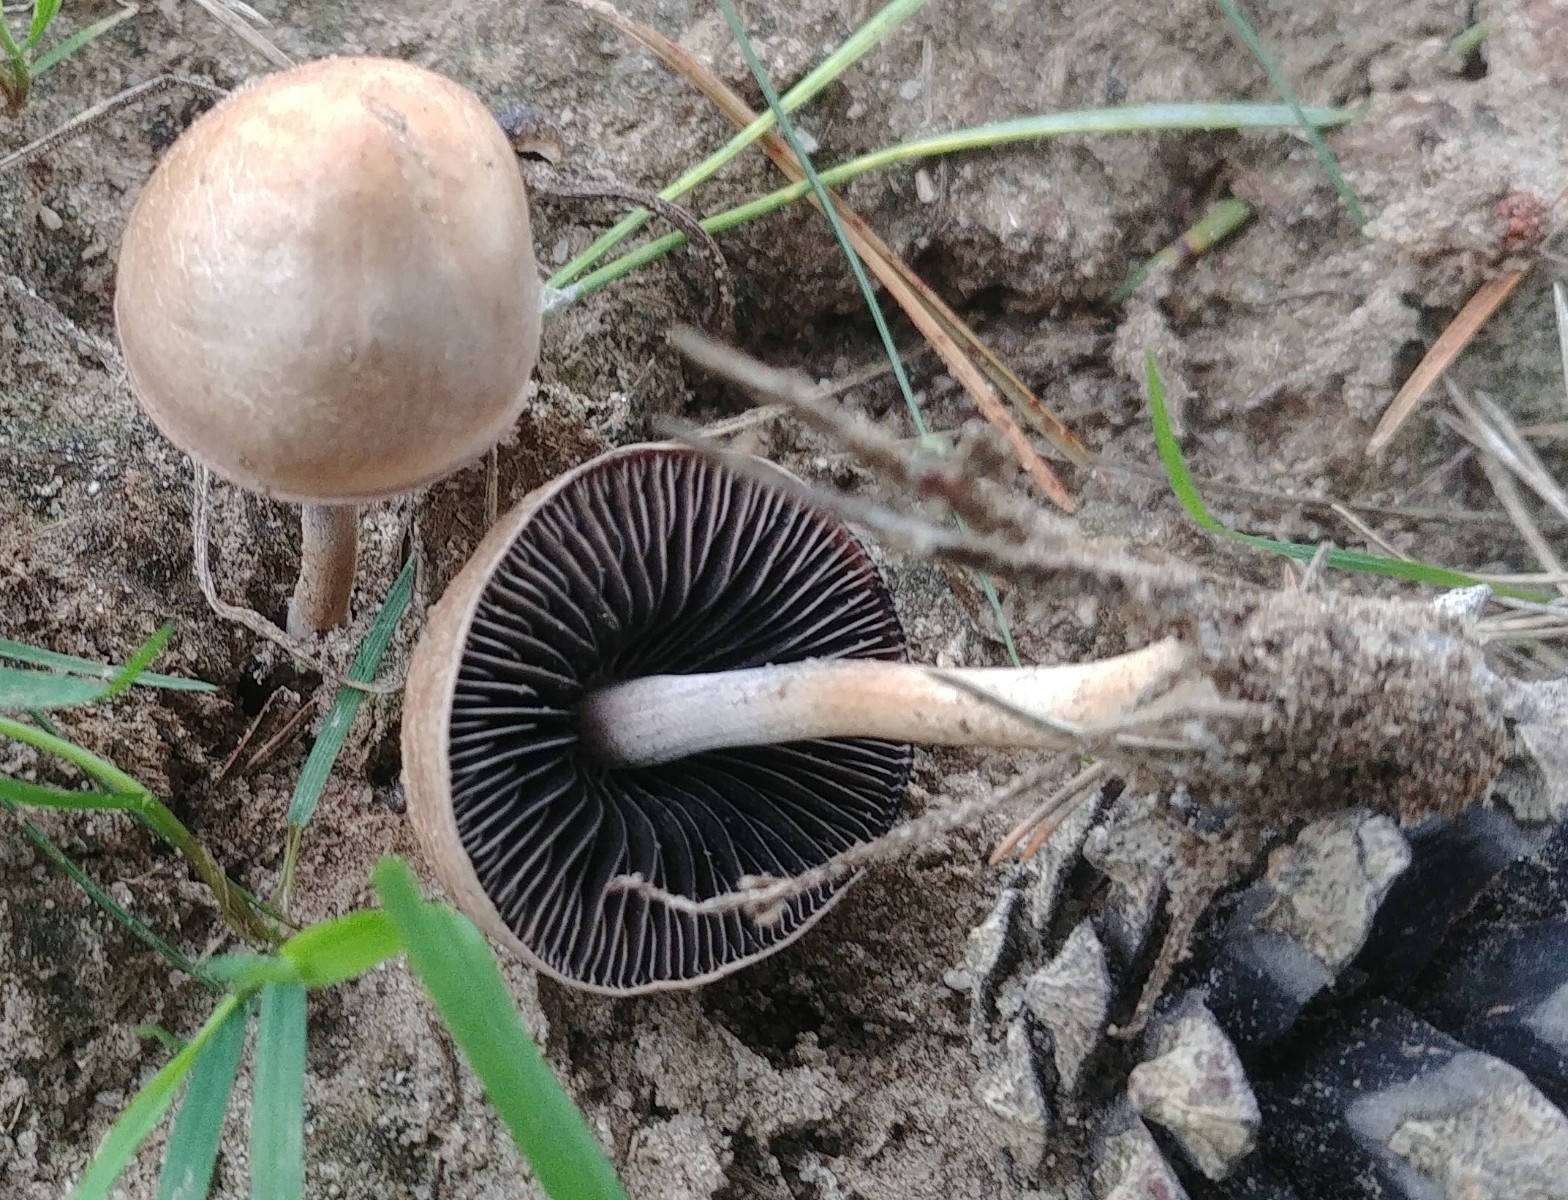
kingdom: Fungi
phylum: Basidiomycota
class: Agaricomycetes
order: Agaricales
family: Bolbitiaceae
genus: Panaeolus
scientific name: Panaeolus
